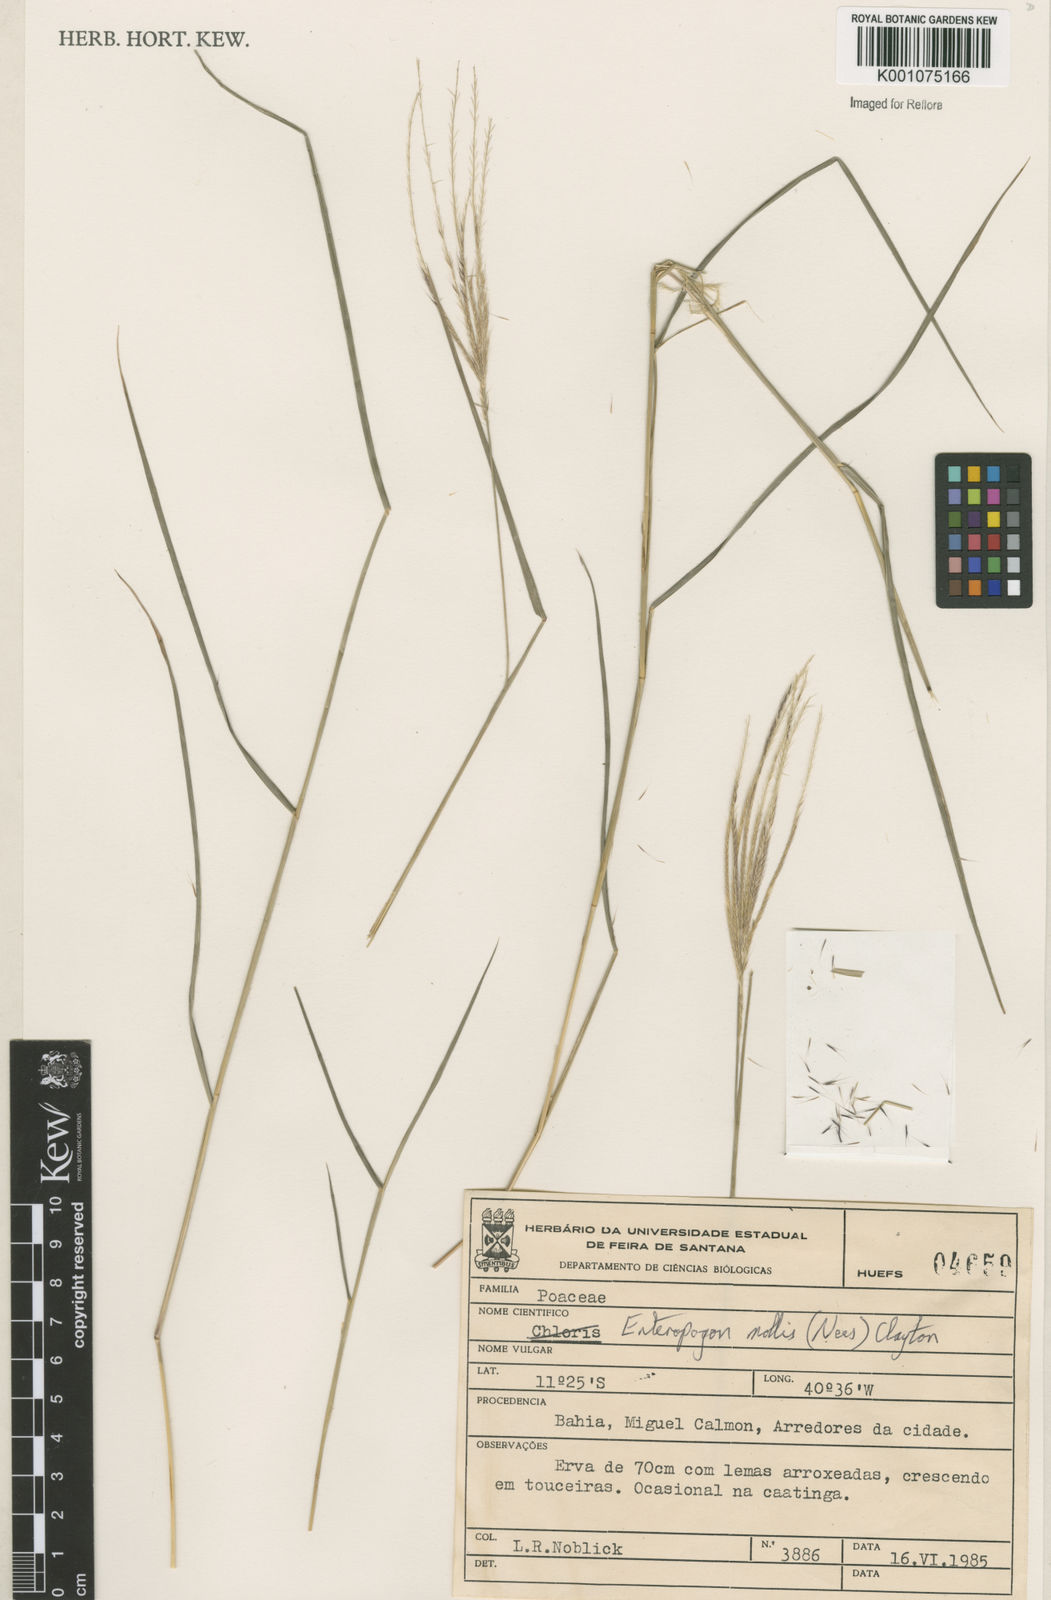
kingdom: Plantae
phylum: Tracheophyta
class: Liliopsida
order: Poales
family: Poaceae
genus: Leptochloa
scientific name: Leptochloa anisopoda
